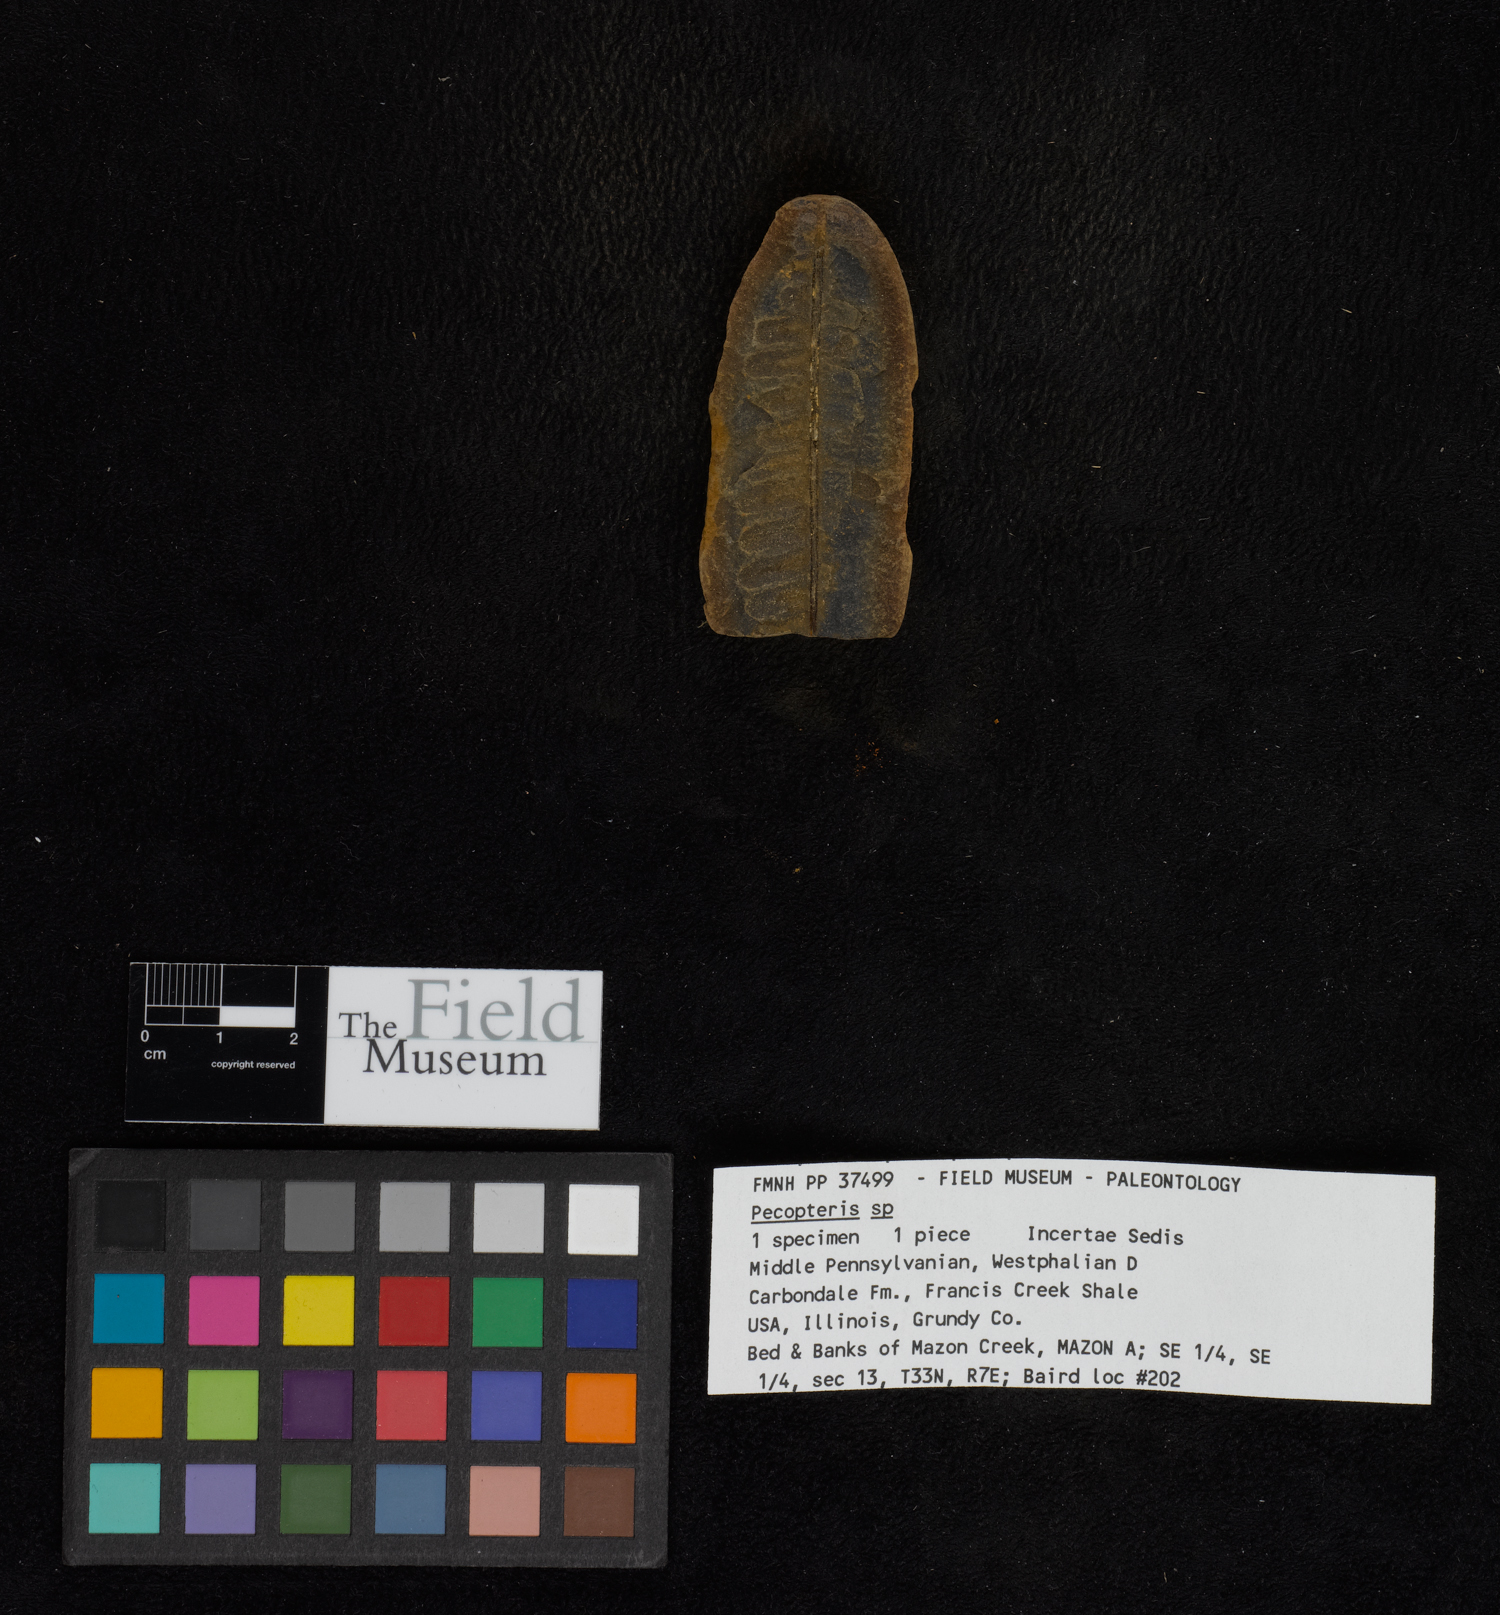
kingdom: Plantae
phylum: Tracheophyta
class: Polypodiopsida
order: Marattiales
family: Asterothecaceae
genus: Pecopteris
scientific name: Pecopteris
